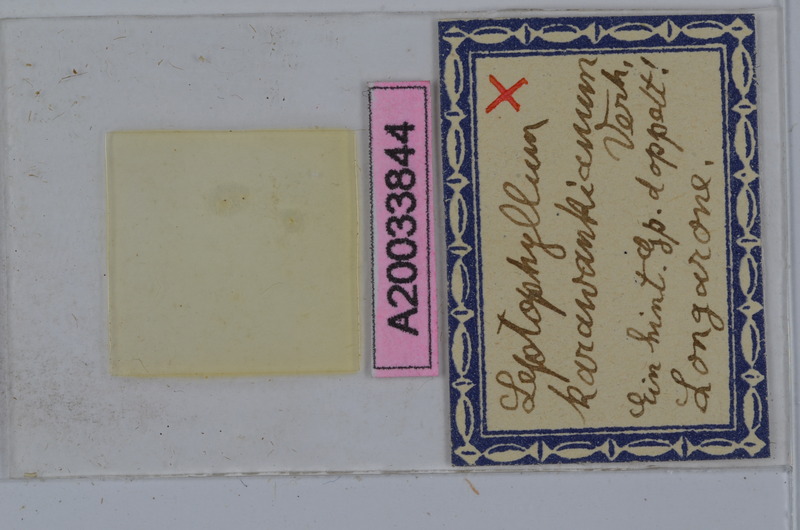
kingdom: Animalia
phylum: Arthropoda
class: Diplopoda
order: Julida
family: Julidae
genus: Enantiulus
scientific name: Enantiulus karawankianus
